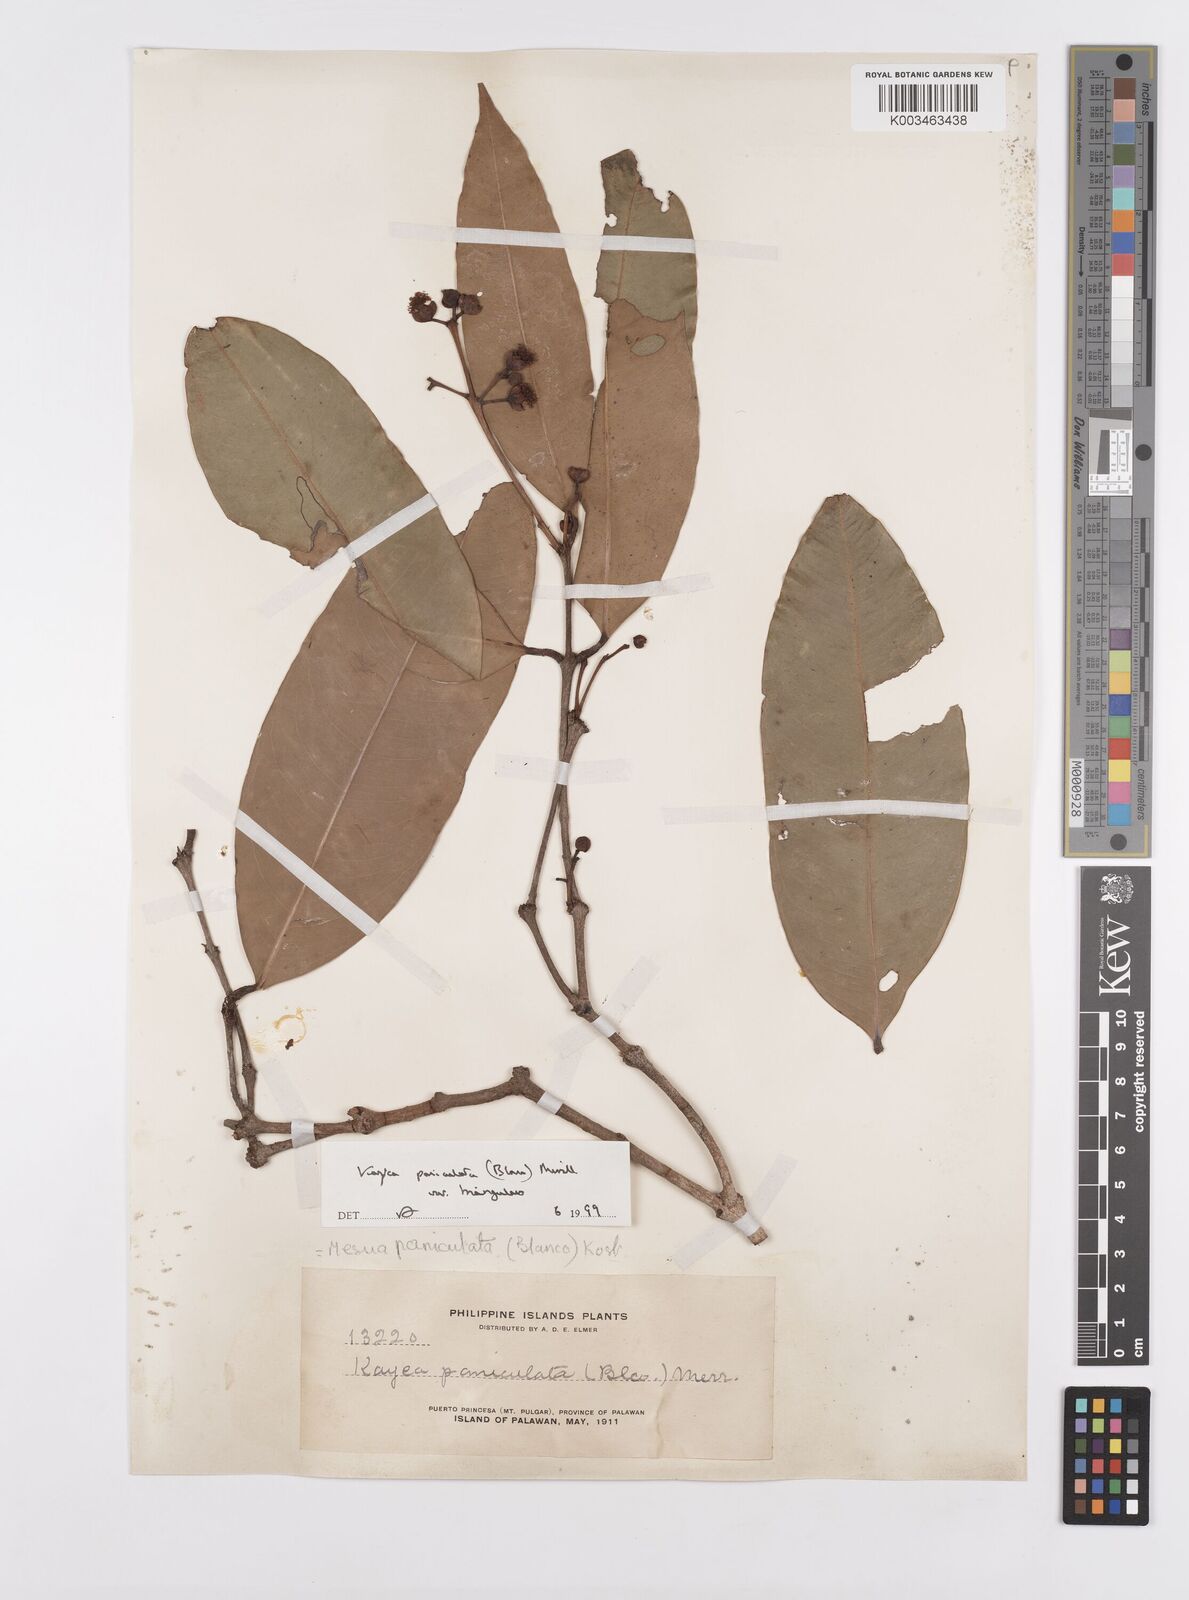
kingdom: Plantae
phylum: Tracheophyta
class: Magnoliopsida
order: Malpighiales
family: Calophyllaceae
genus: Kayea
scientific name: Kayea
